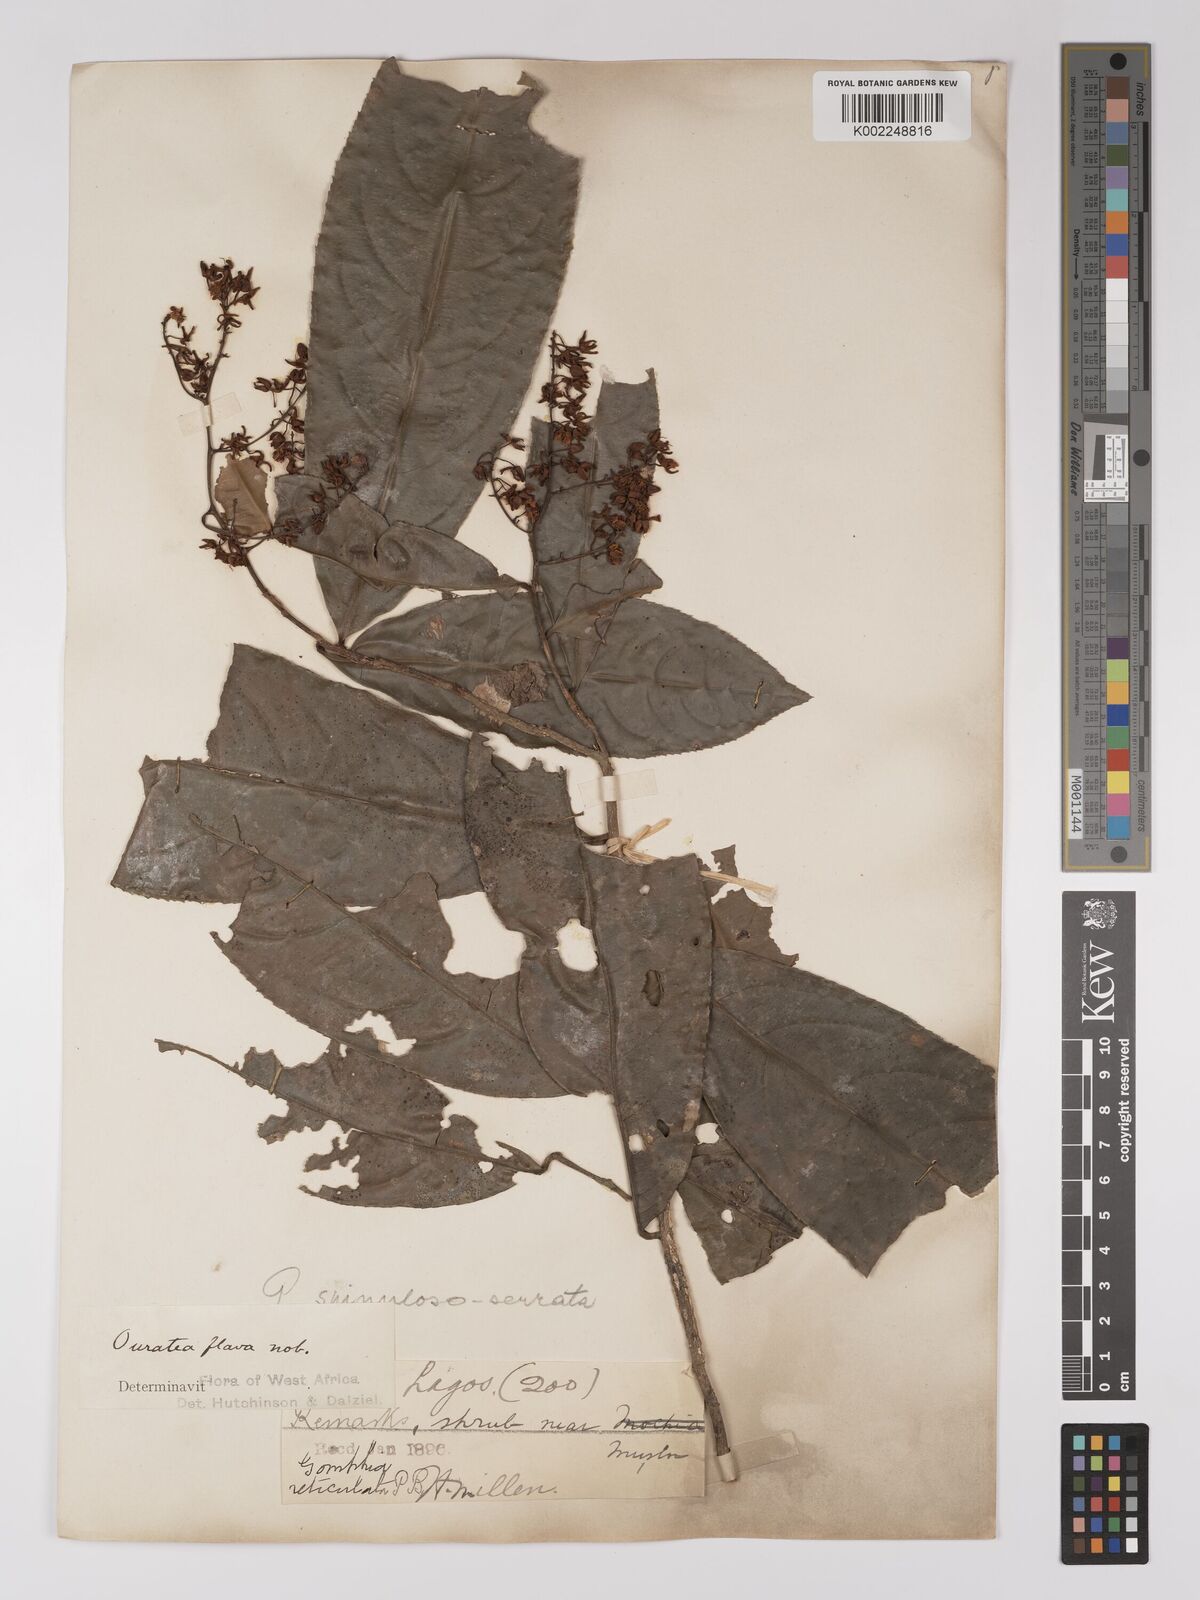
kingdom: Plantae
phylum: Tracheophyta
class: Magnoliopsida
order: Malpighiales
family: Ochnaceae
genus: Campylospermum
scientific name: Campylospermum flavum
